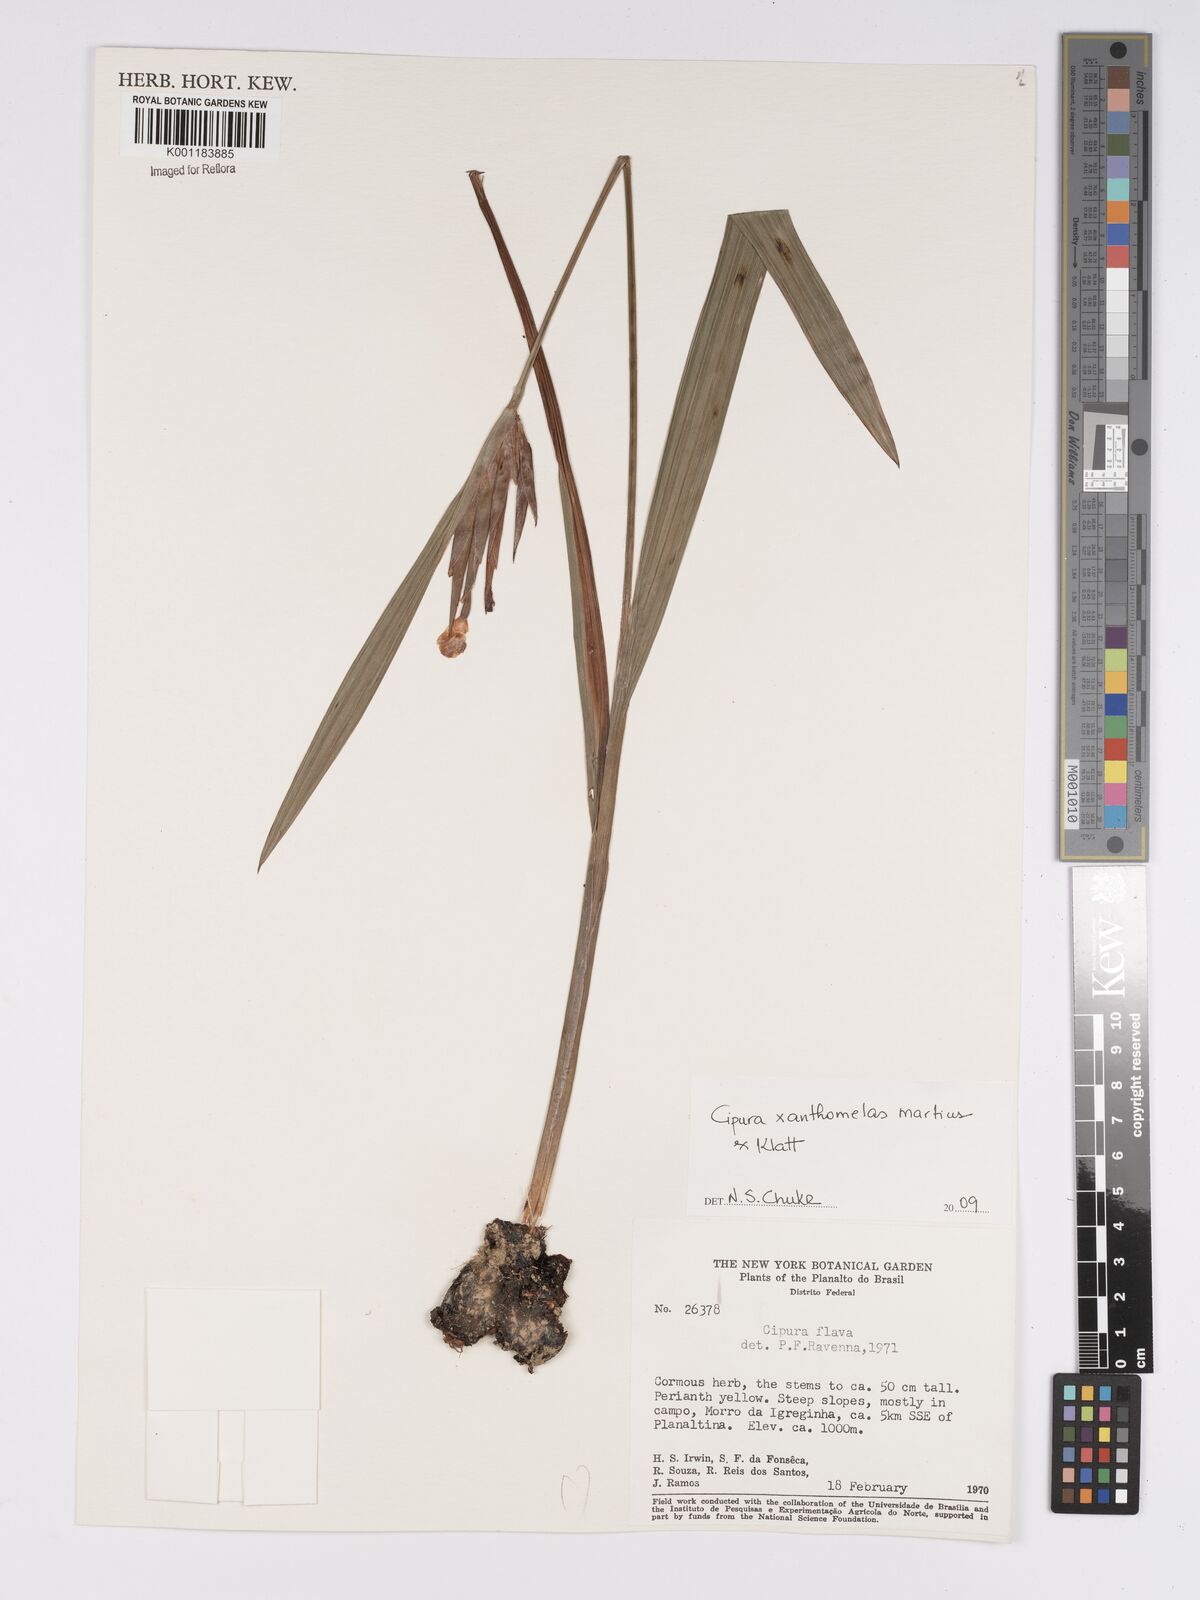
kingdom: Plantae
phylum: Tracheophyta
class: Liliopsida
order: Asparagales
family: Iridaceae
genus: Cipura
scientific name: Cipura xanthomelas
